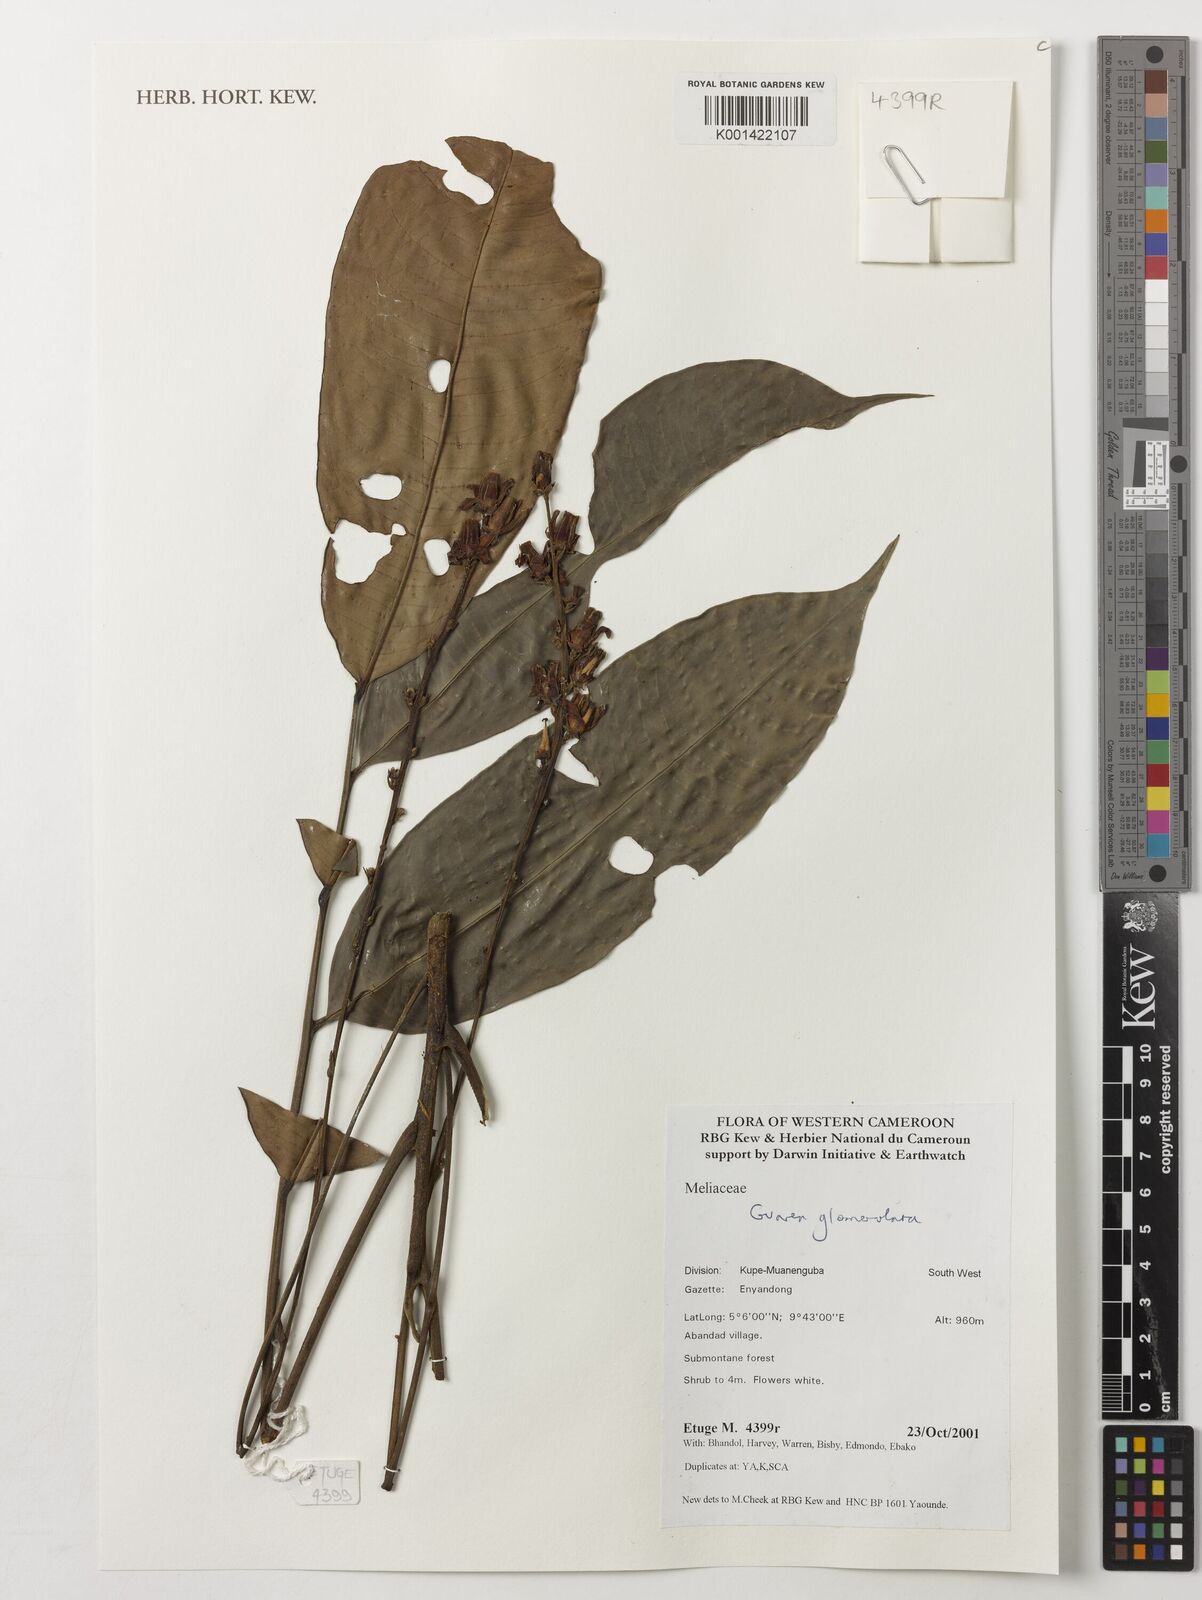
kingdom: Plantae
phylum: Tracheophyta
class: Magnoliopsida
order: Sapindales
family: Meliaceae
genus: Neoguarea
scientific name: Neoguarea glomerulata
